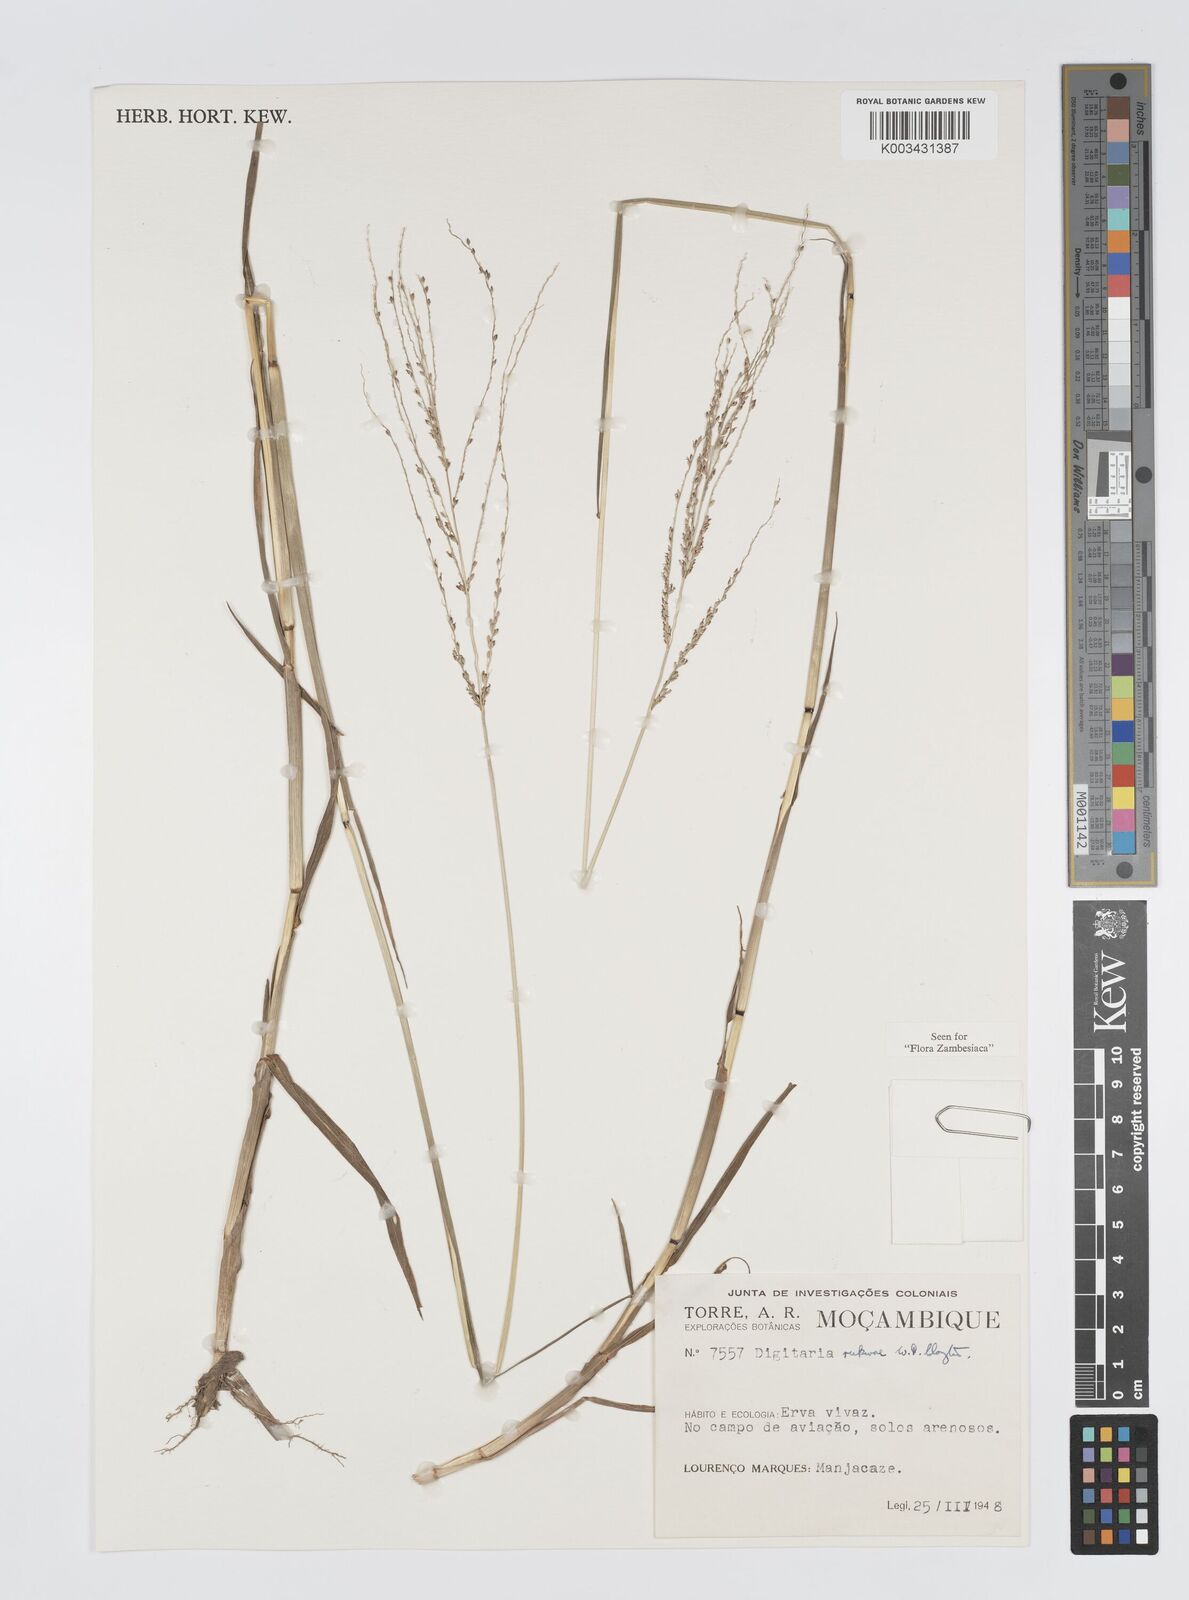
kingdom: Plantae
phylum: Tracheophyta
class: Liliopsida
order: Poales
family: Poaceae
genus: Digitaria
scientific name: Digitaria rukwae
